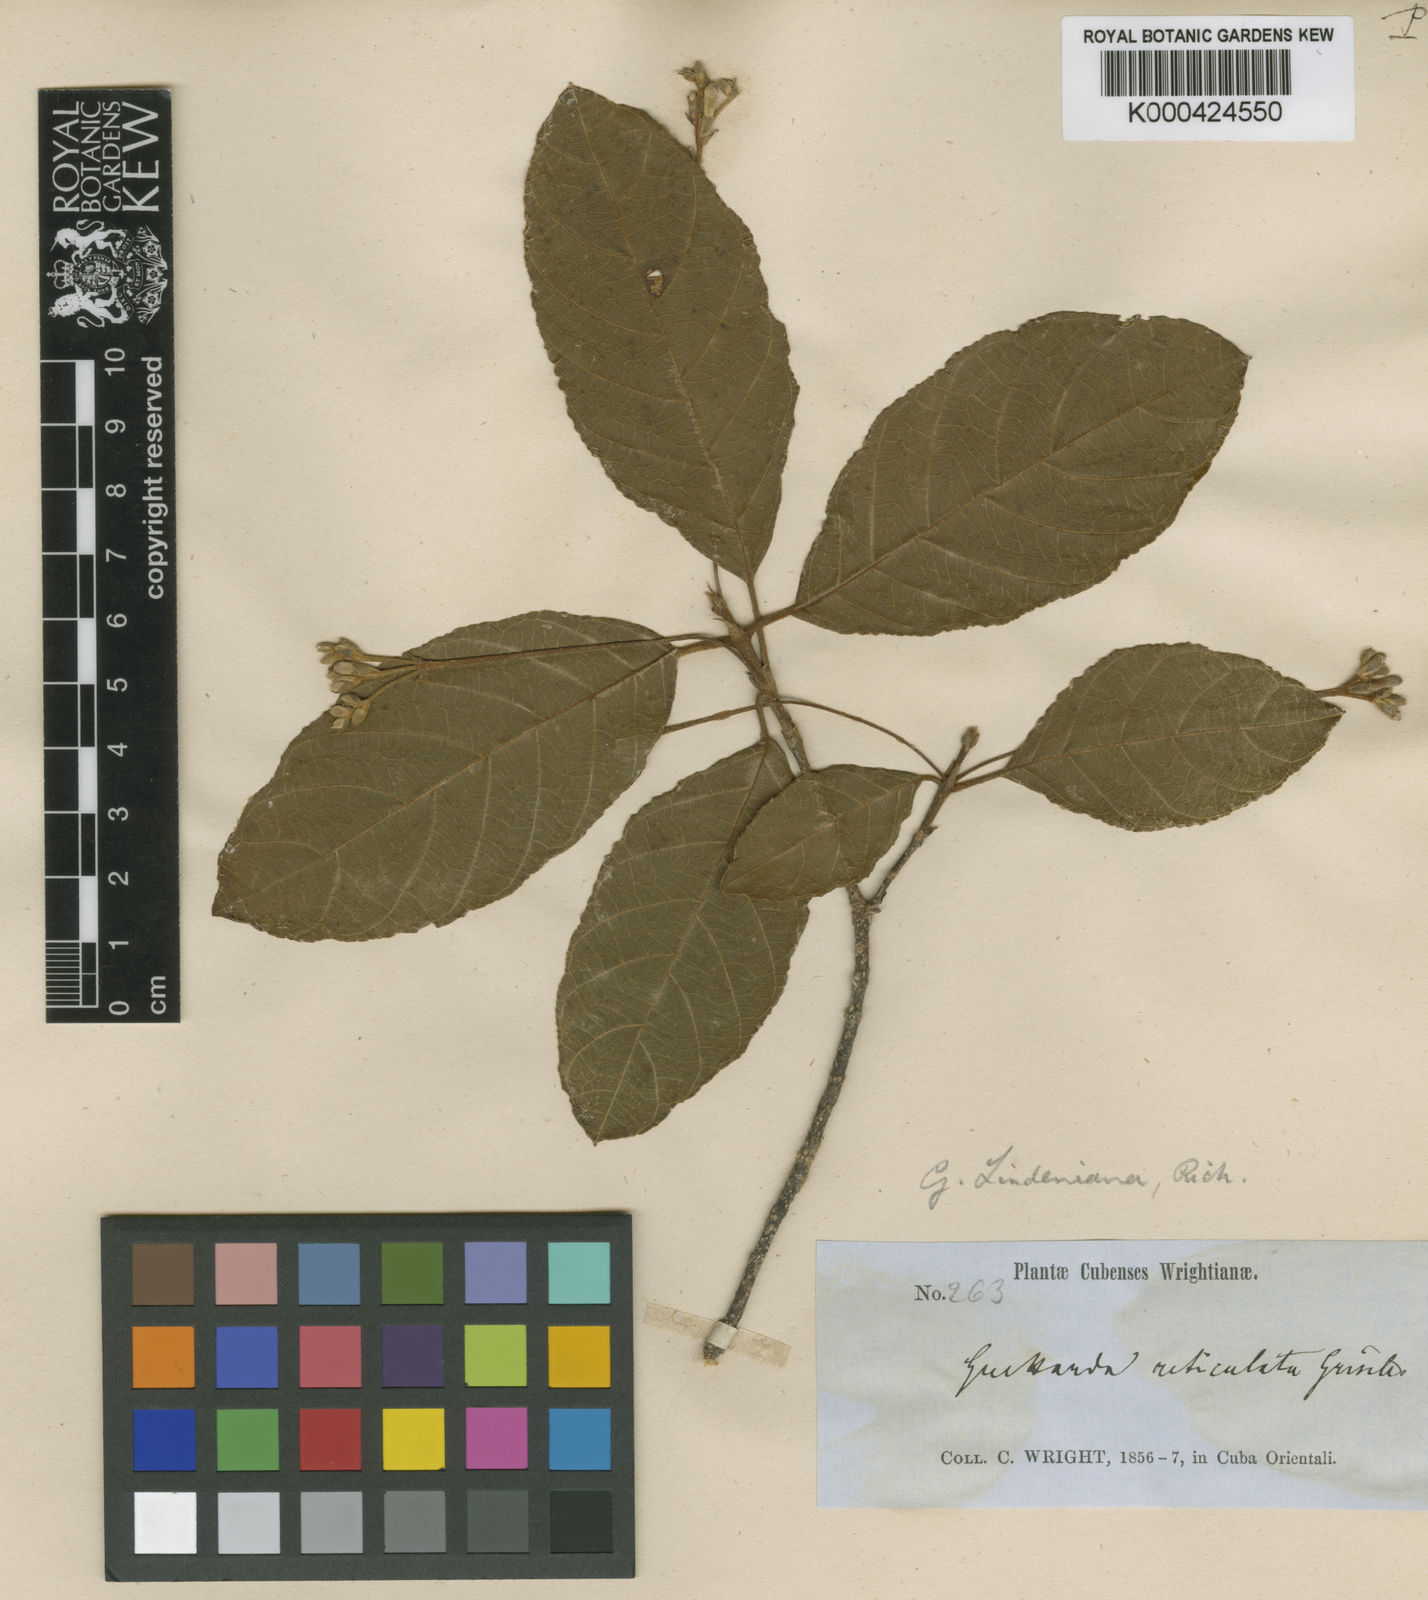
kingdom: Plantae
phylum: Tracheophyta
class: Magnoliopsida
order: Gentianales
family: Rubiaceae
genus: Guettarda
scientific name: Guettarda lindeniana
